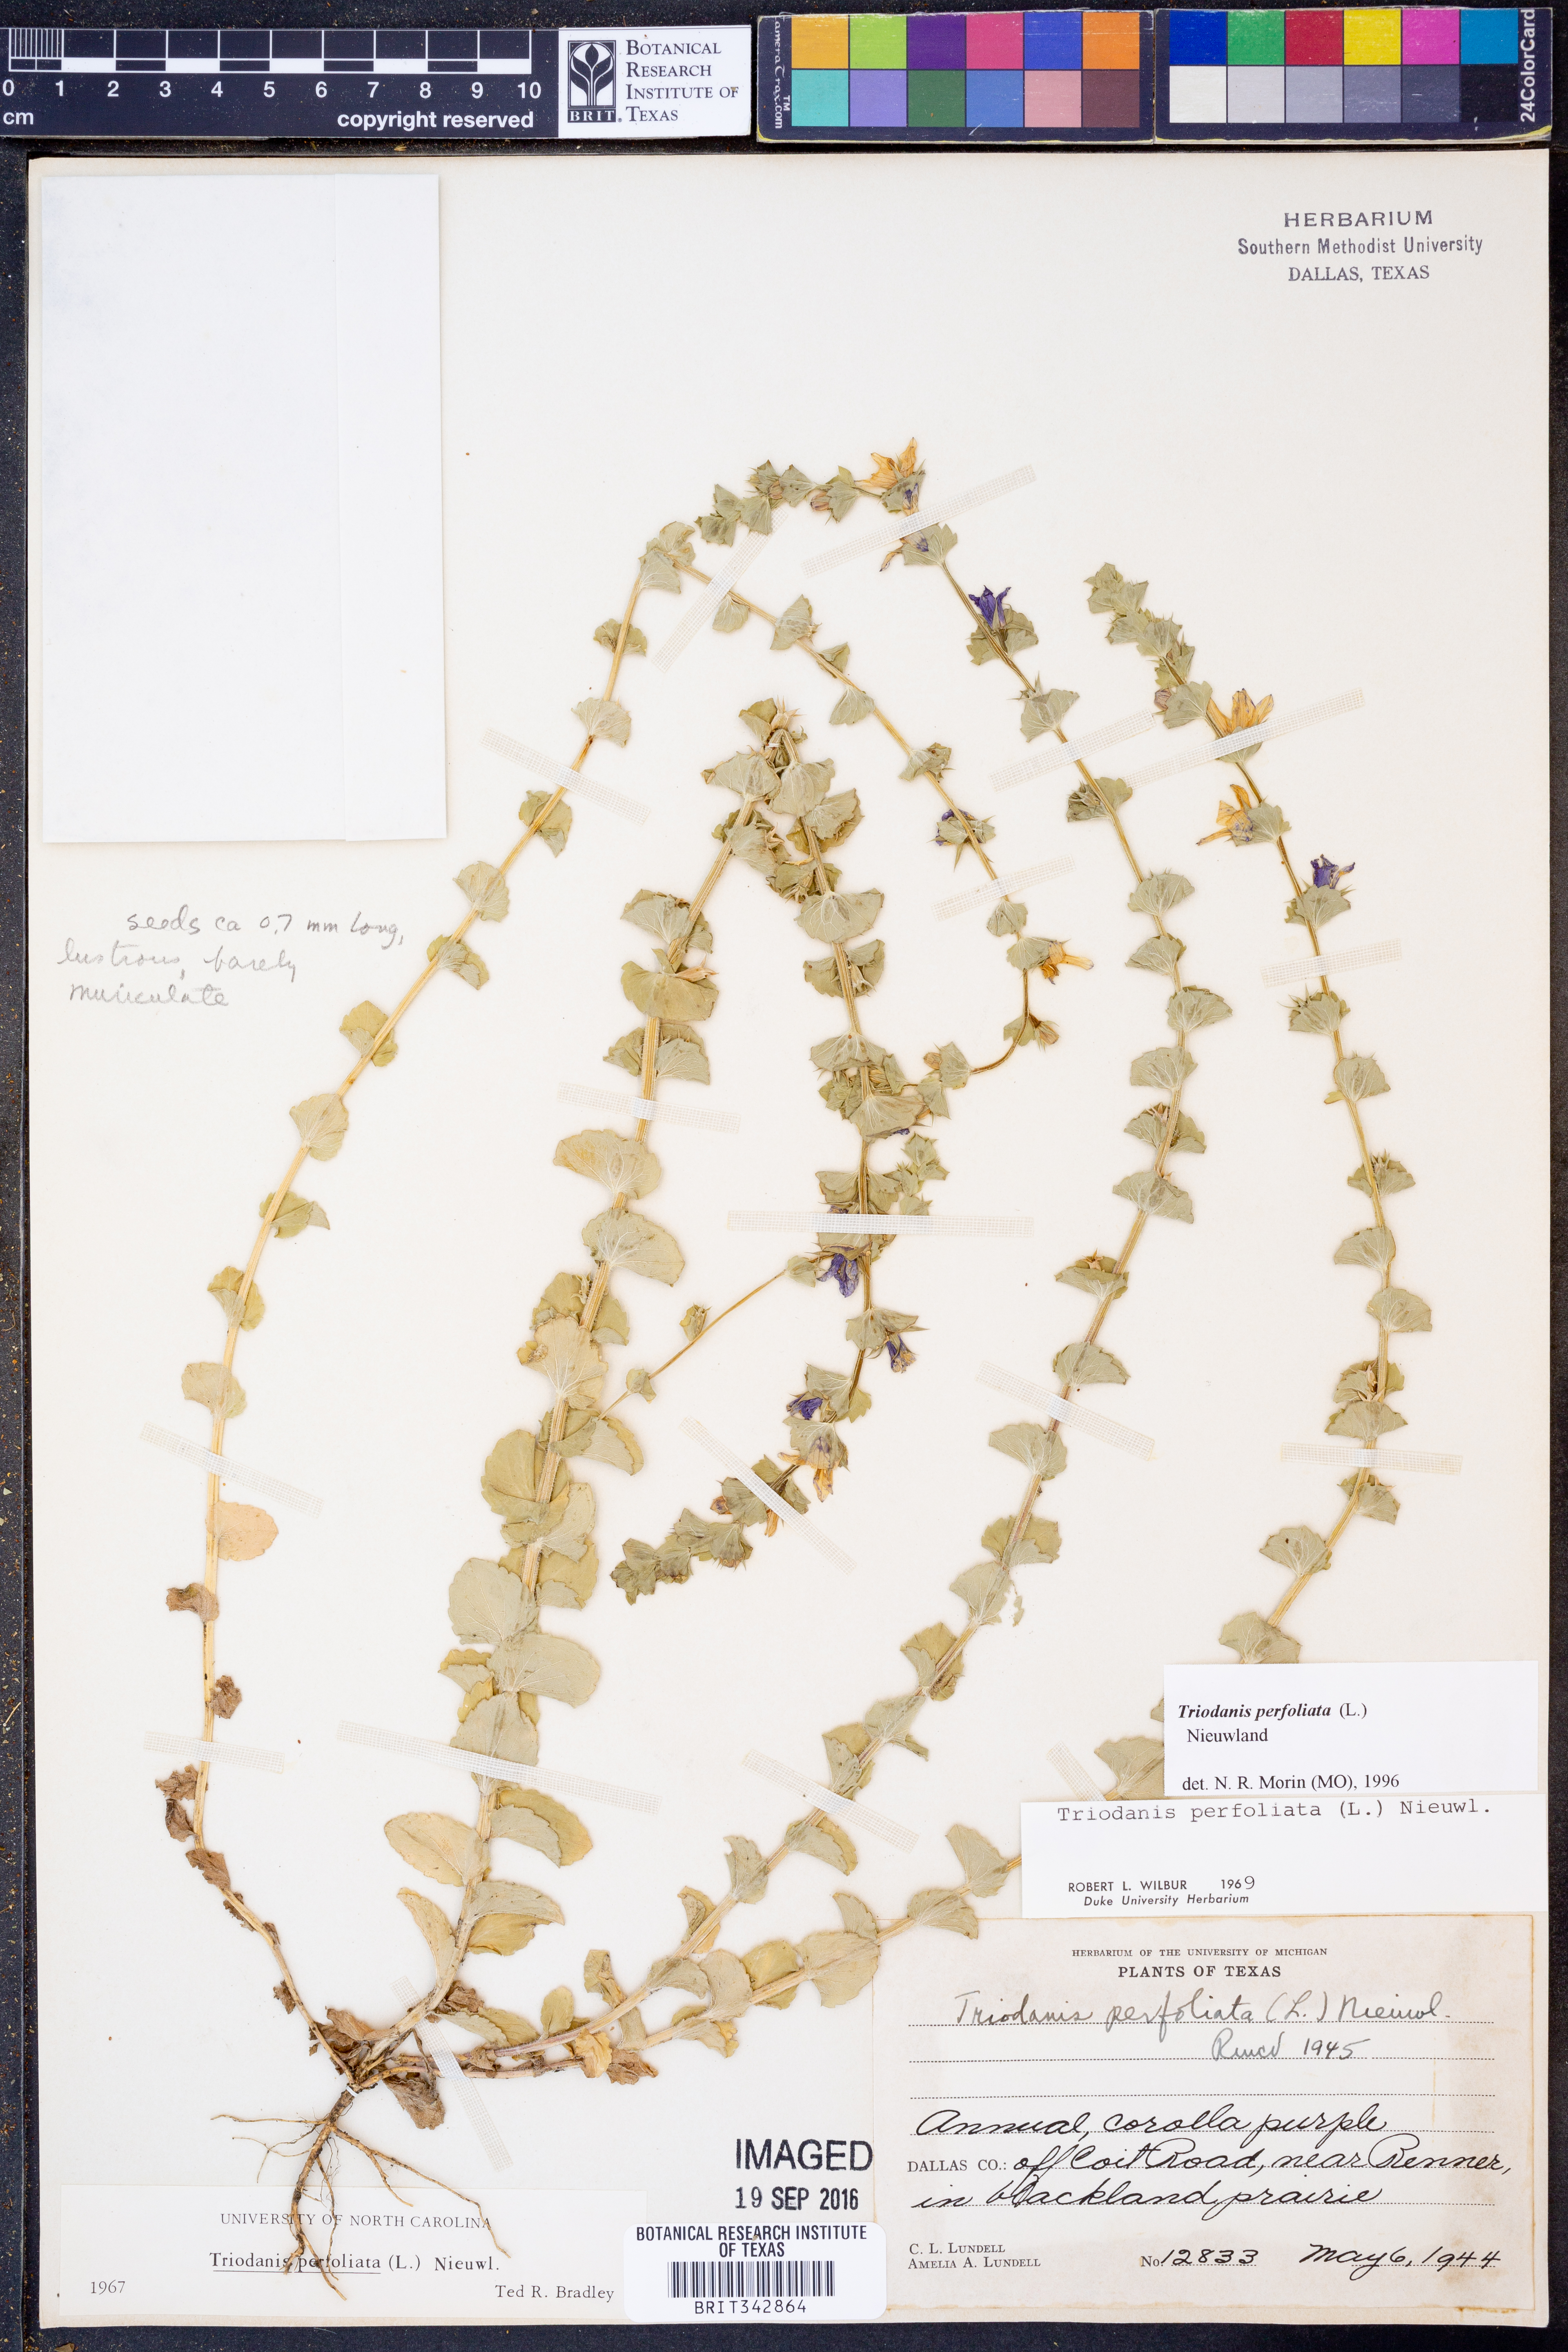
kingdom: Plantae
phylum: Tracheophyta
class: Magnoliopsida
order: Asterales
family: Campanulaceae
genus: Triodanis
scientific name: Triodanis perfoliata
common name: Clasping venus' looking-glass
